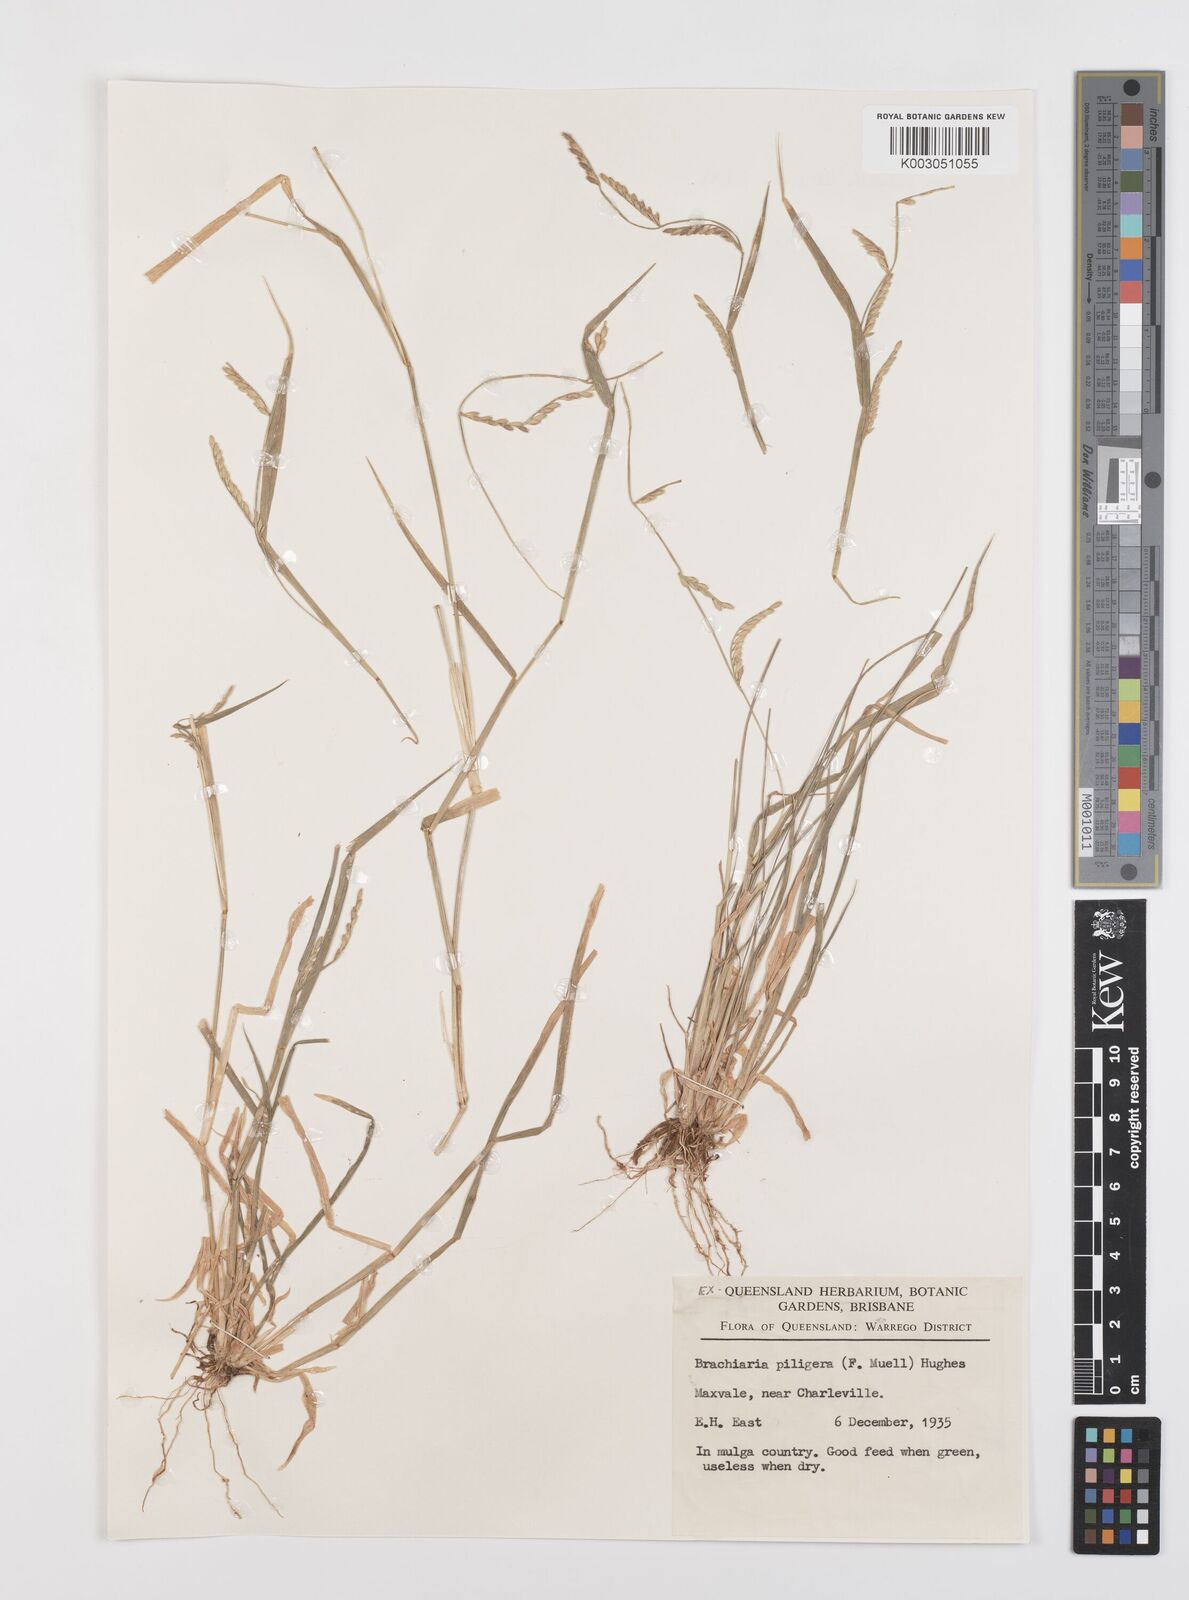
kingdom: Plantae
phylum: Tracheophyta
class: Liliopsida
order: Poales
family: Poaceae
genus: Urochloa
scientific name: Urochloa piligera
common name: Wattle signalgrass
